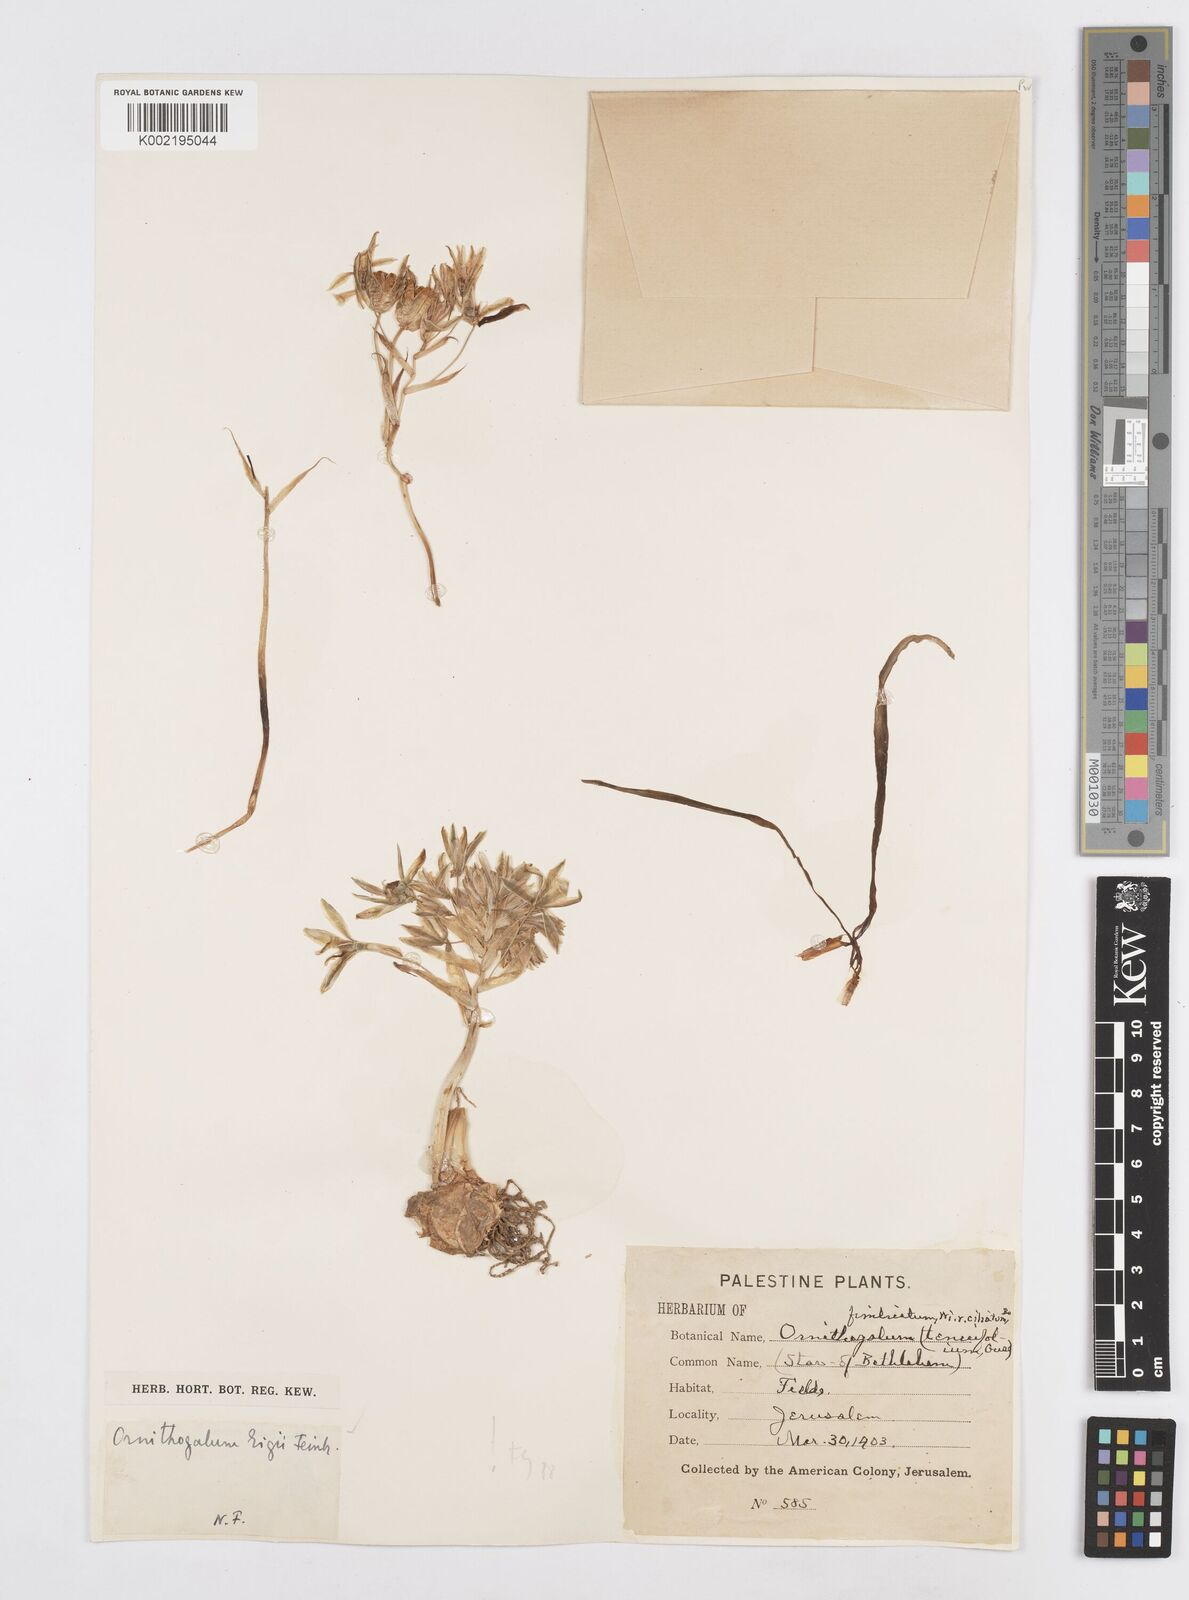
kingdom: Plantae
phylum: Tracheophyta
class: Liliopsida
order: Asparagales
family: Asparagaceae
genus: Ornithogalum
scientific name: Ornithogalum neurostegium
